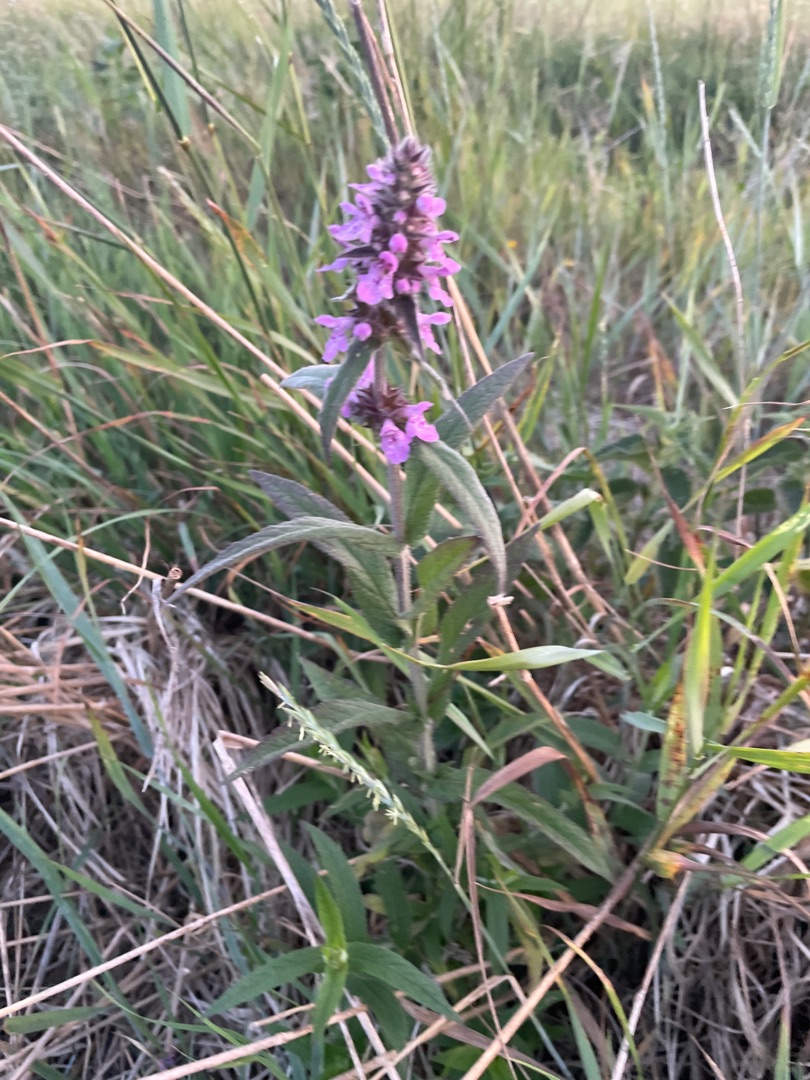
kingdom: Plantae
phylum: Tracheophyta
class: Magnoliopsida
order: Lamiales
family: Lamiaceae
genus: Stachys
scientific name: Stachys palustris
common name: Kær-galtetand
